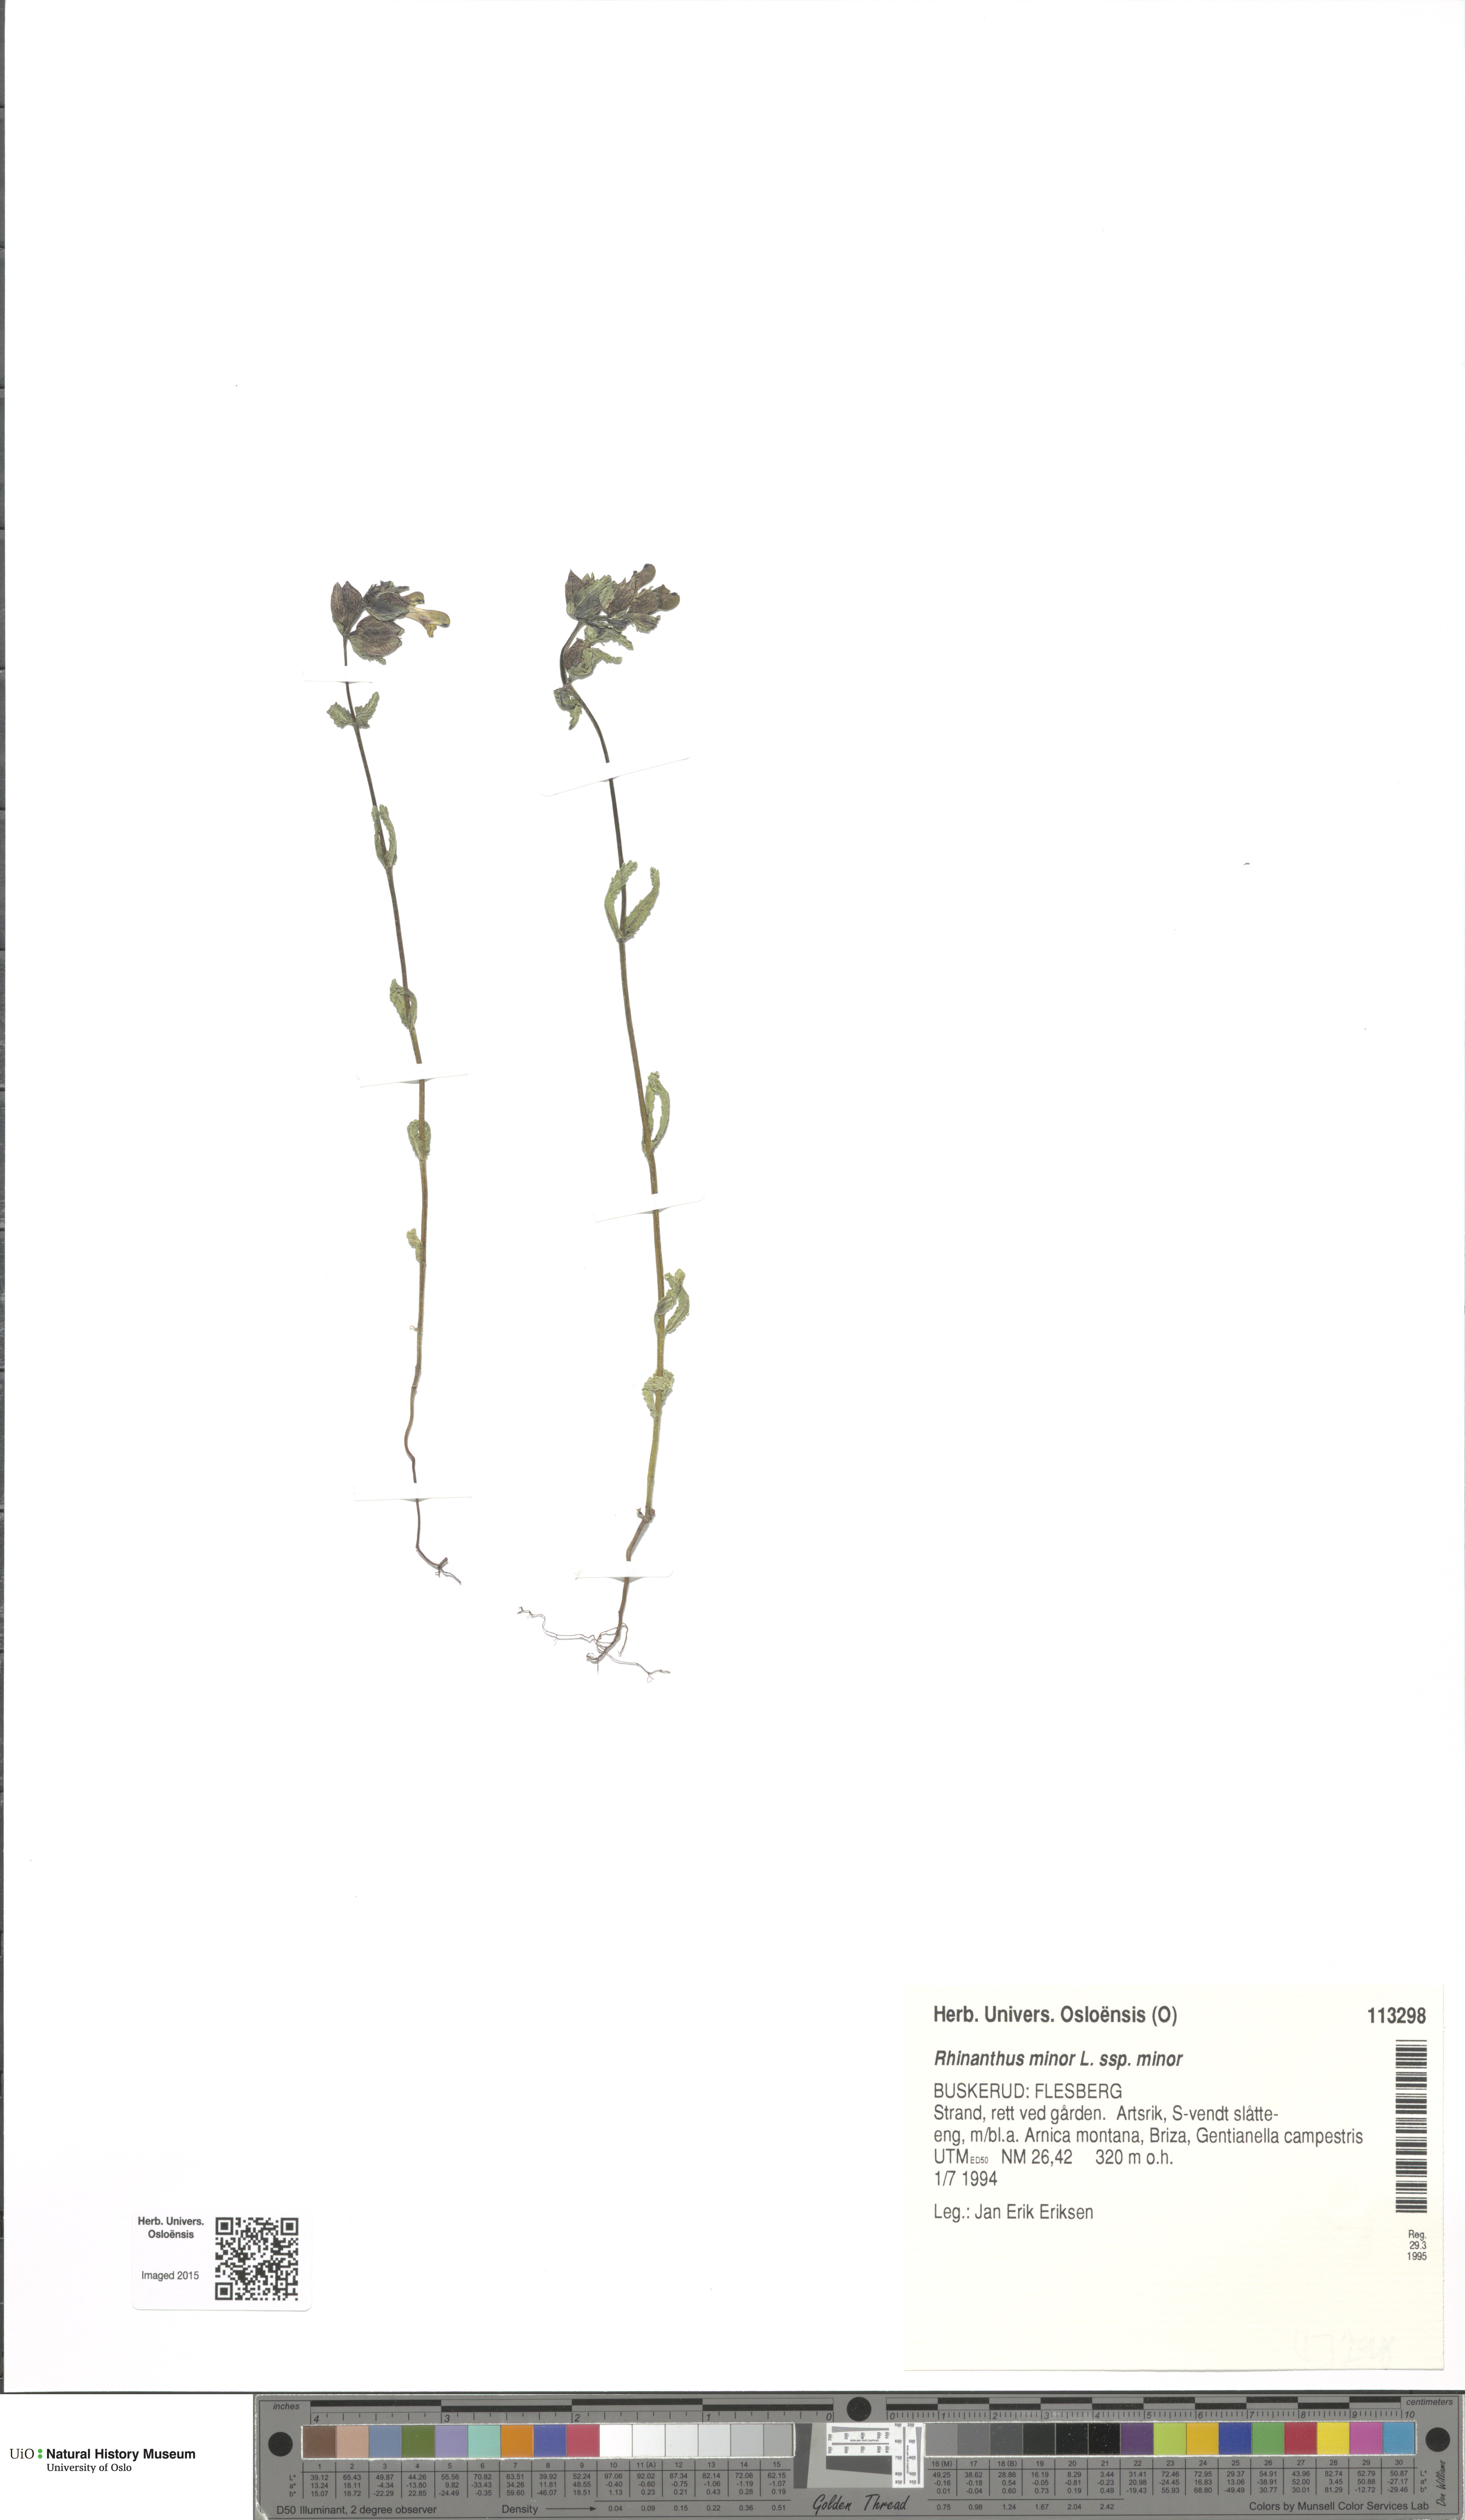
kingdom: Plantae
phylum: Tracheophyta
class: Magnoliopsida
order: Lamiales
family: Orobanchaceae
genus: Rhinanthus
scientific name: Rhinanthus minor
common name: Yellow-rattle
